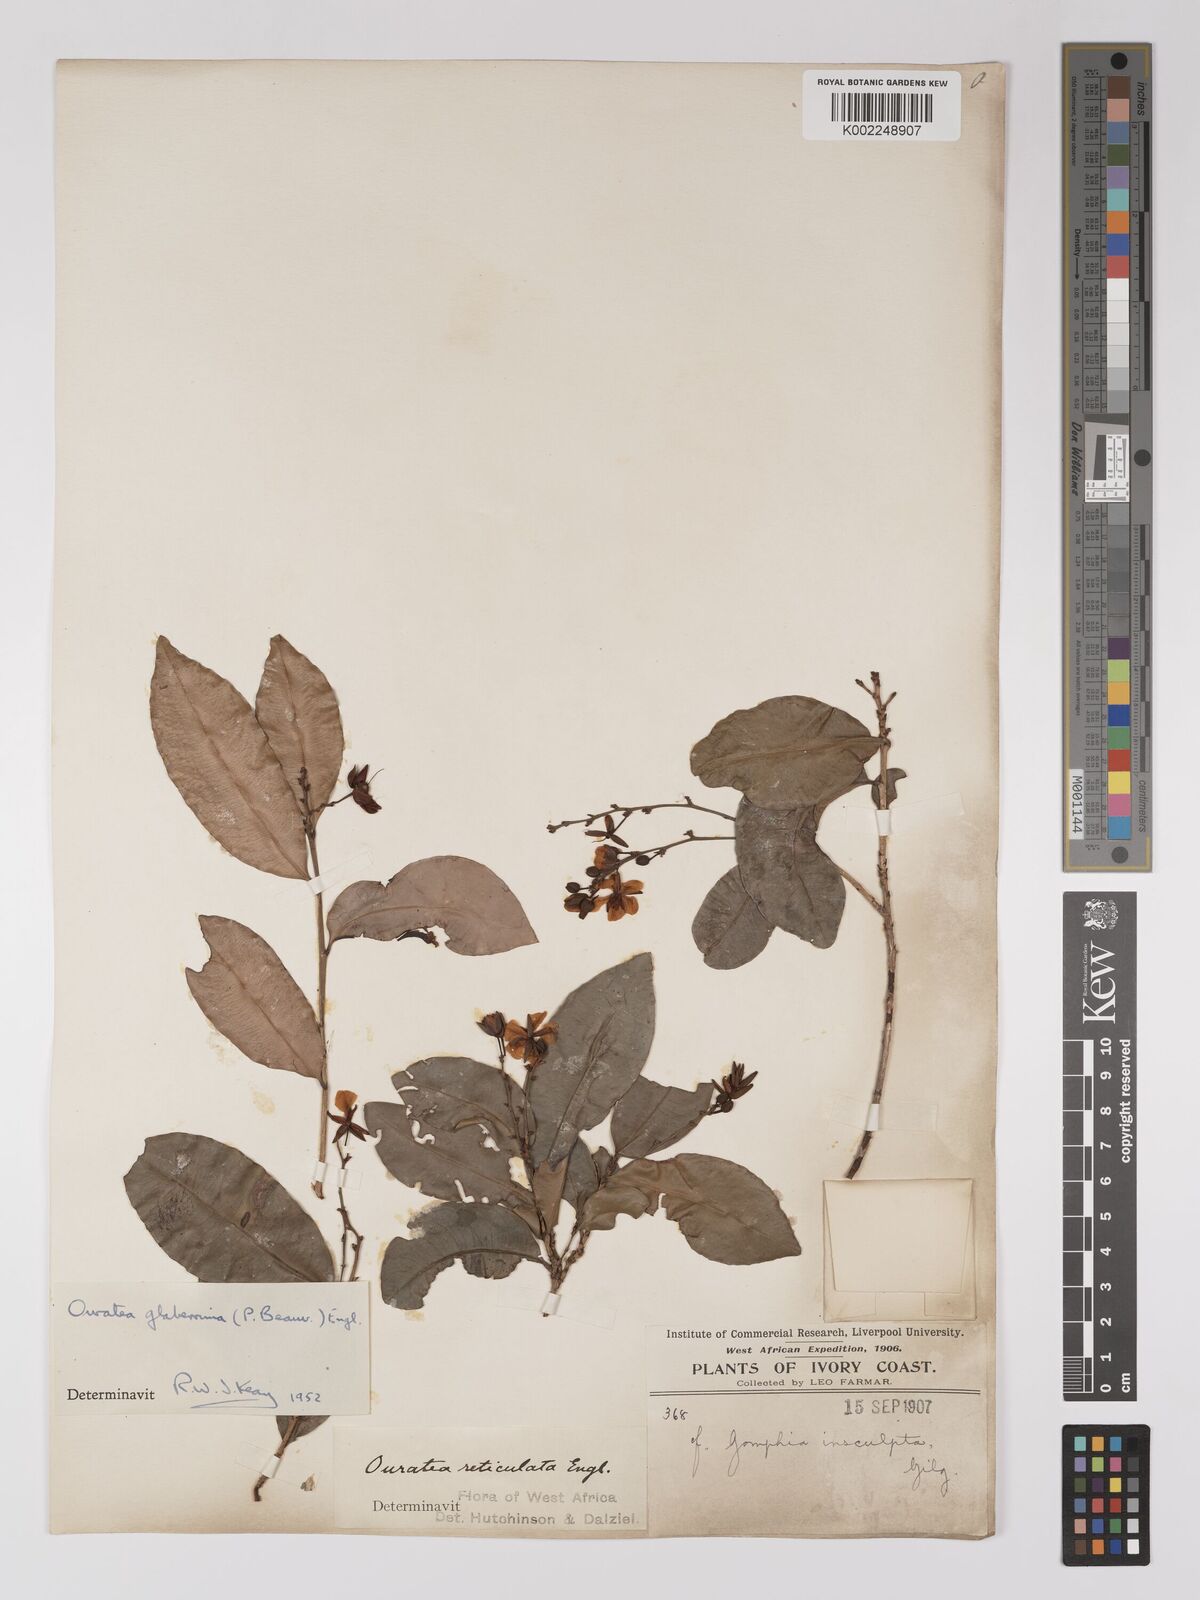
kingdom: Plantae
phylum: Tracheophyta
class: Magnoliopsida
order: Malpighiales
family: Ochnaceae
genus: Campylospermum
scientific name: Campylospermum glaberrimum
